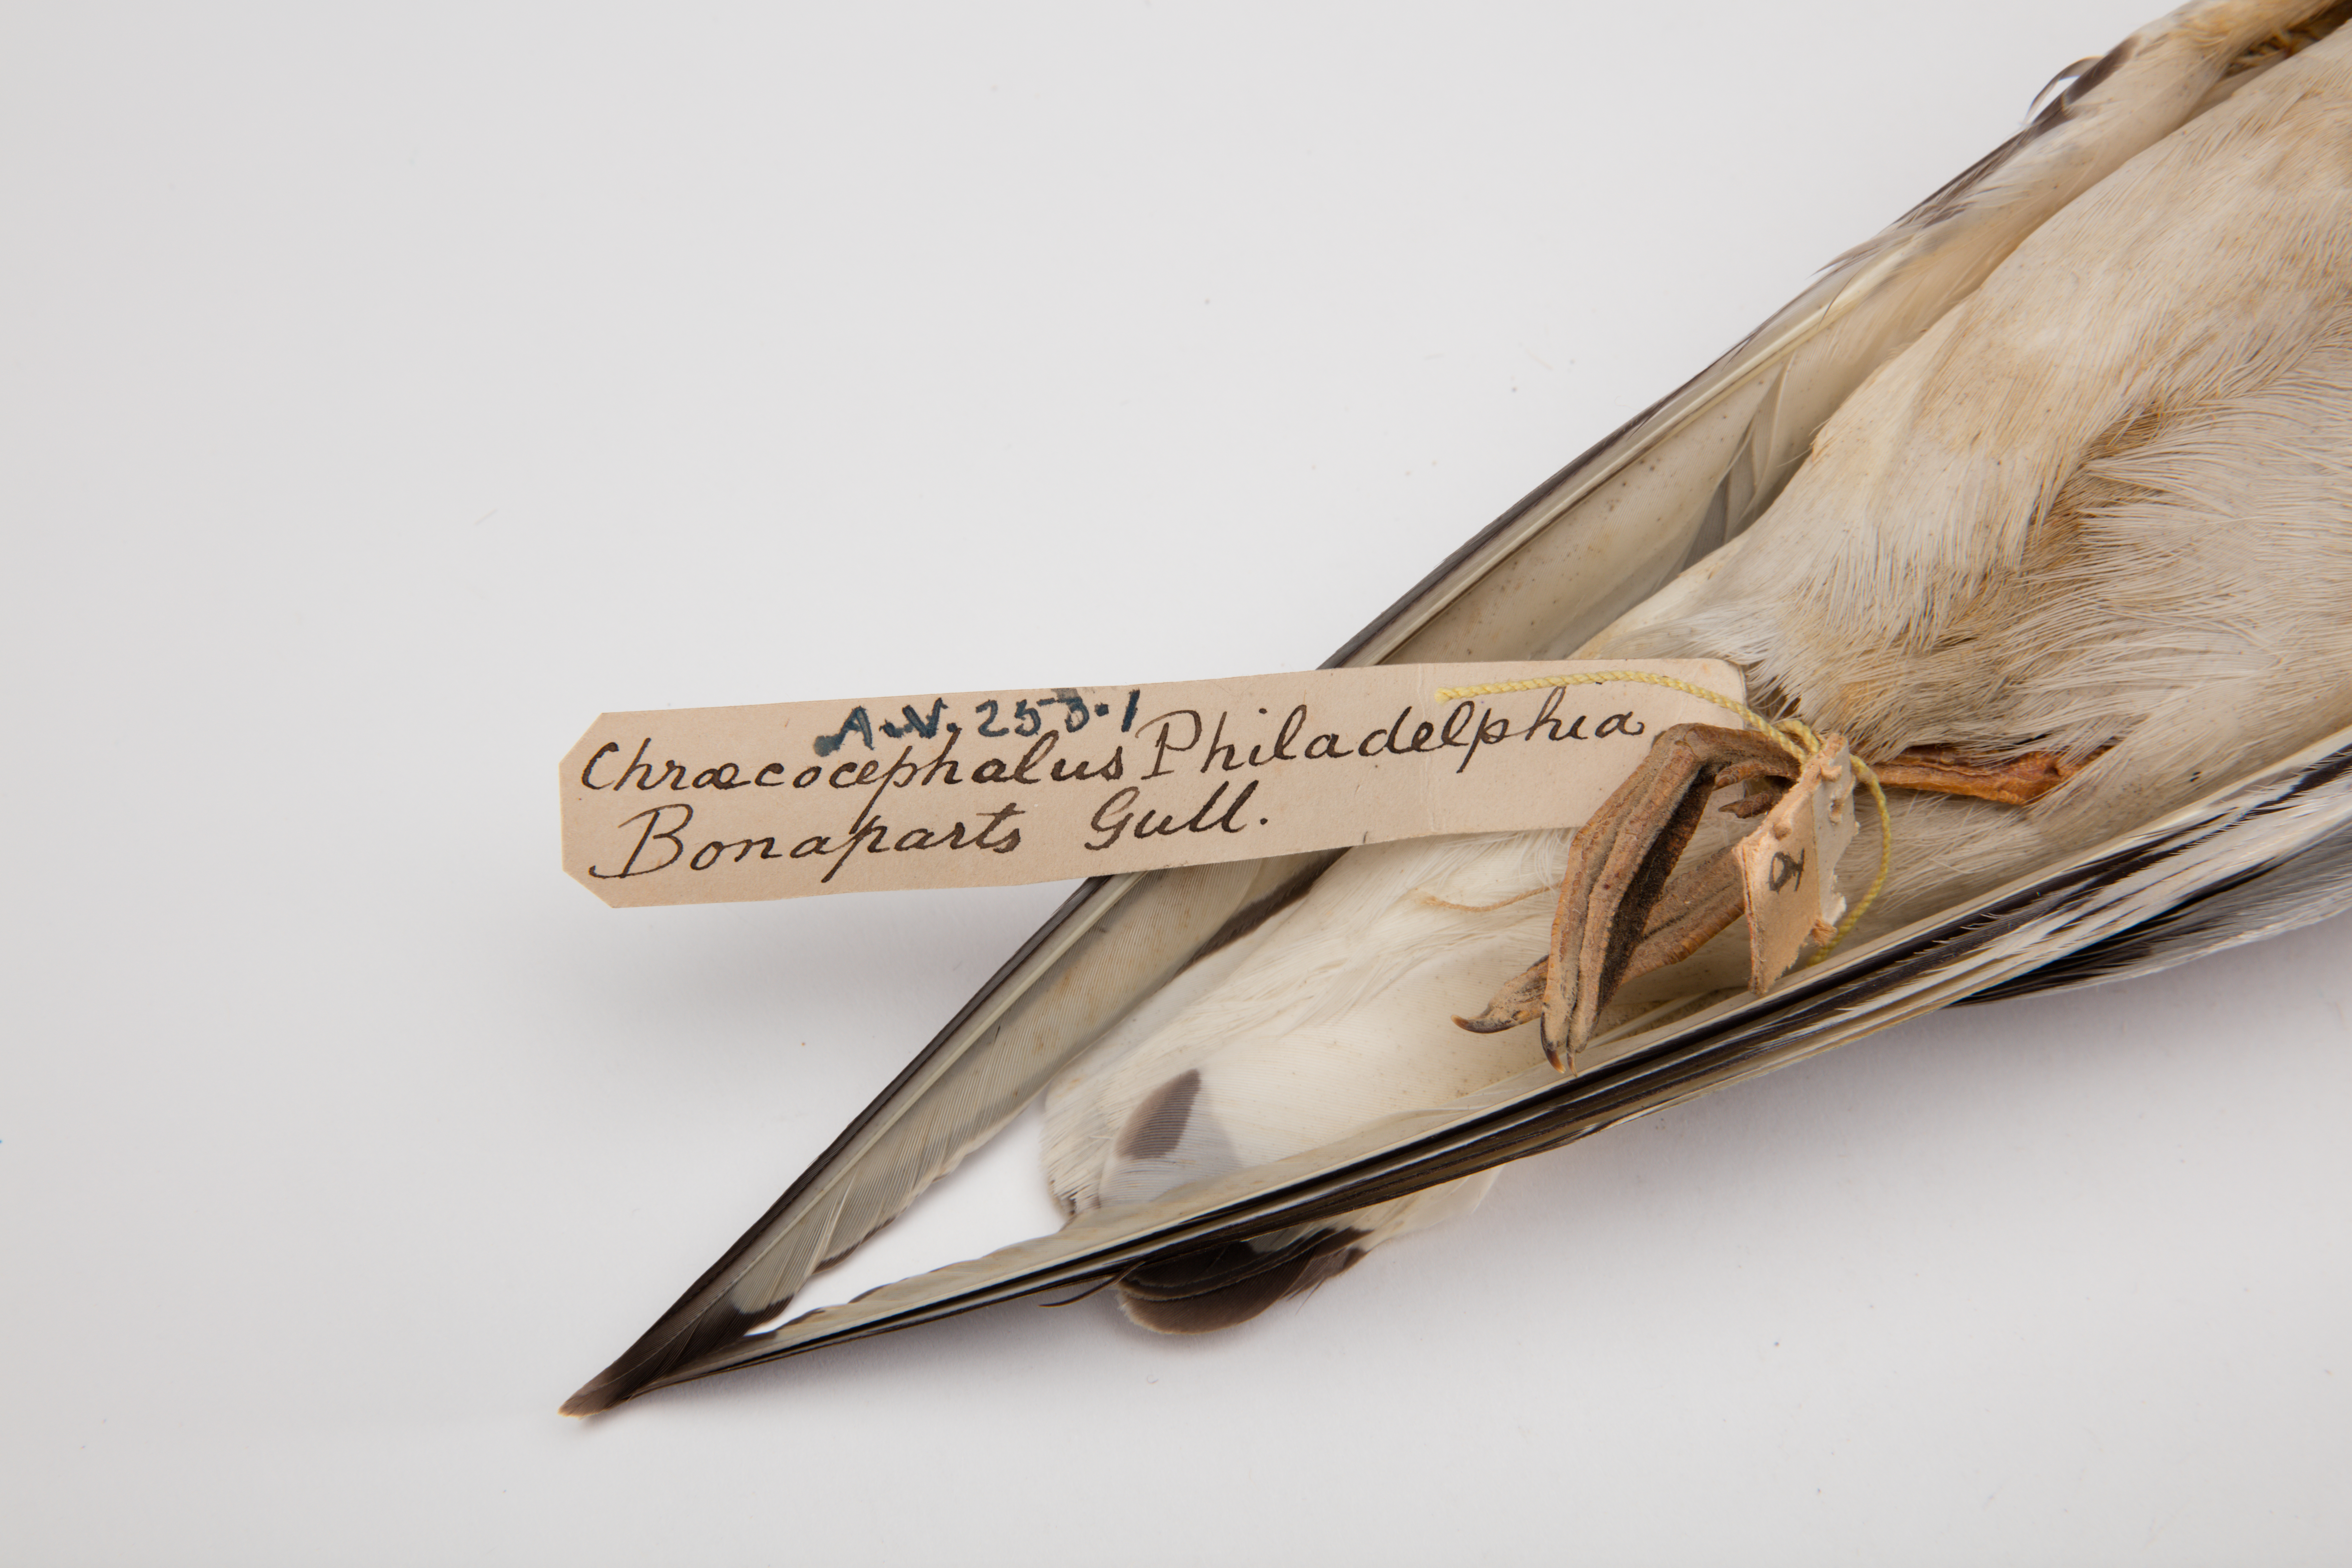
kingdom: Animalia
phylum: Chordata
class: Aves
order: Charadriiformes
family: Laridae
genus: Chroicocephalus
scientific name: Chroicocephalus philadelphia
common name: Bonaparte's gull
